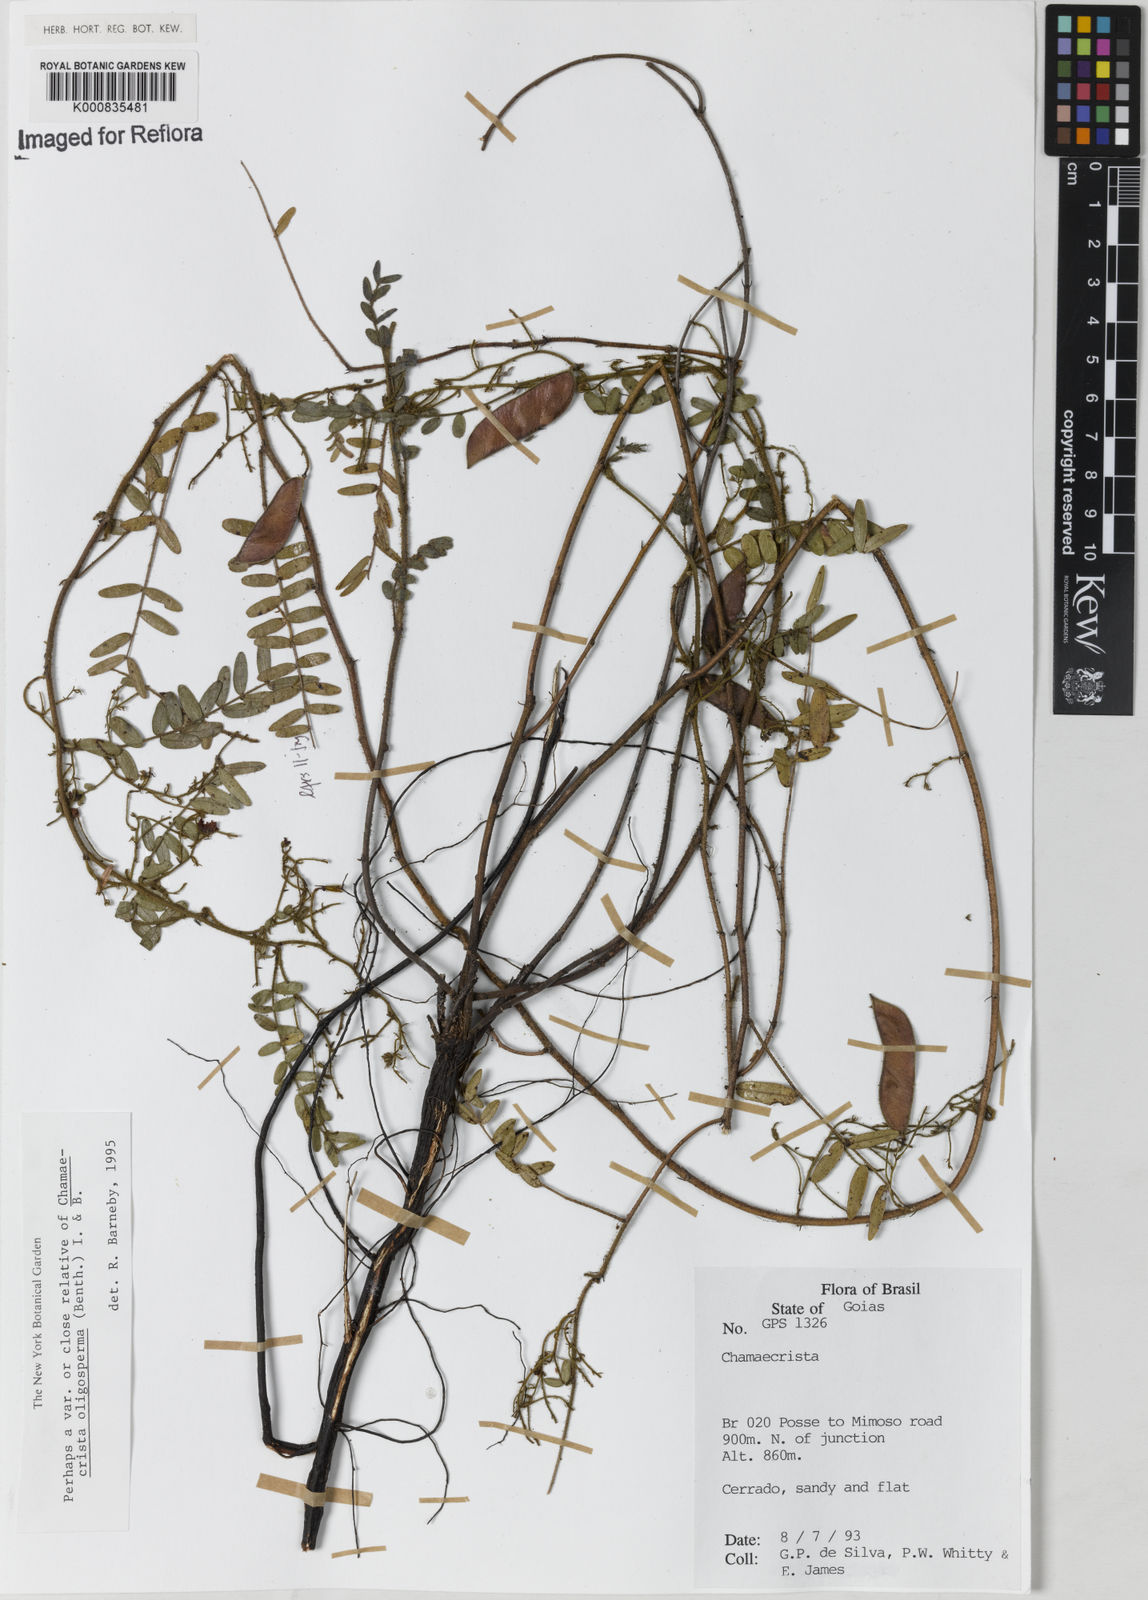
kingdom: Plantae
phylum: Tracheophyta
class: Magnoliopsida
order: Fabales
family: Fabaceae
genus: Chamaecrista
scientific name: Chamaecrista oligosperma
